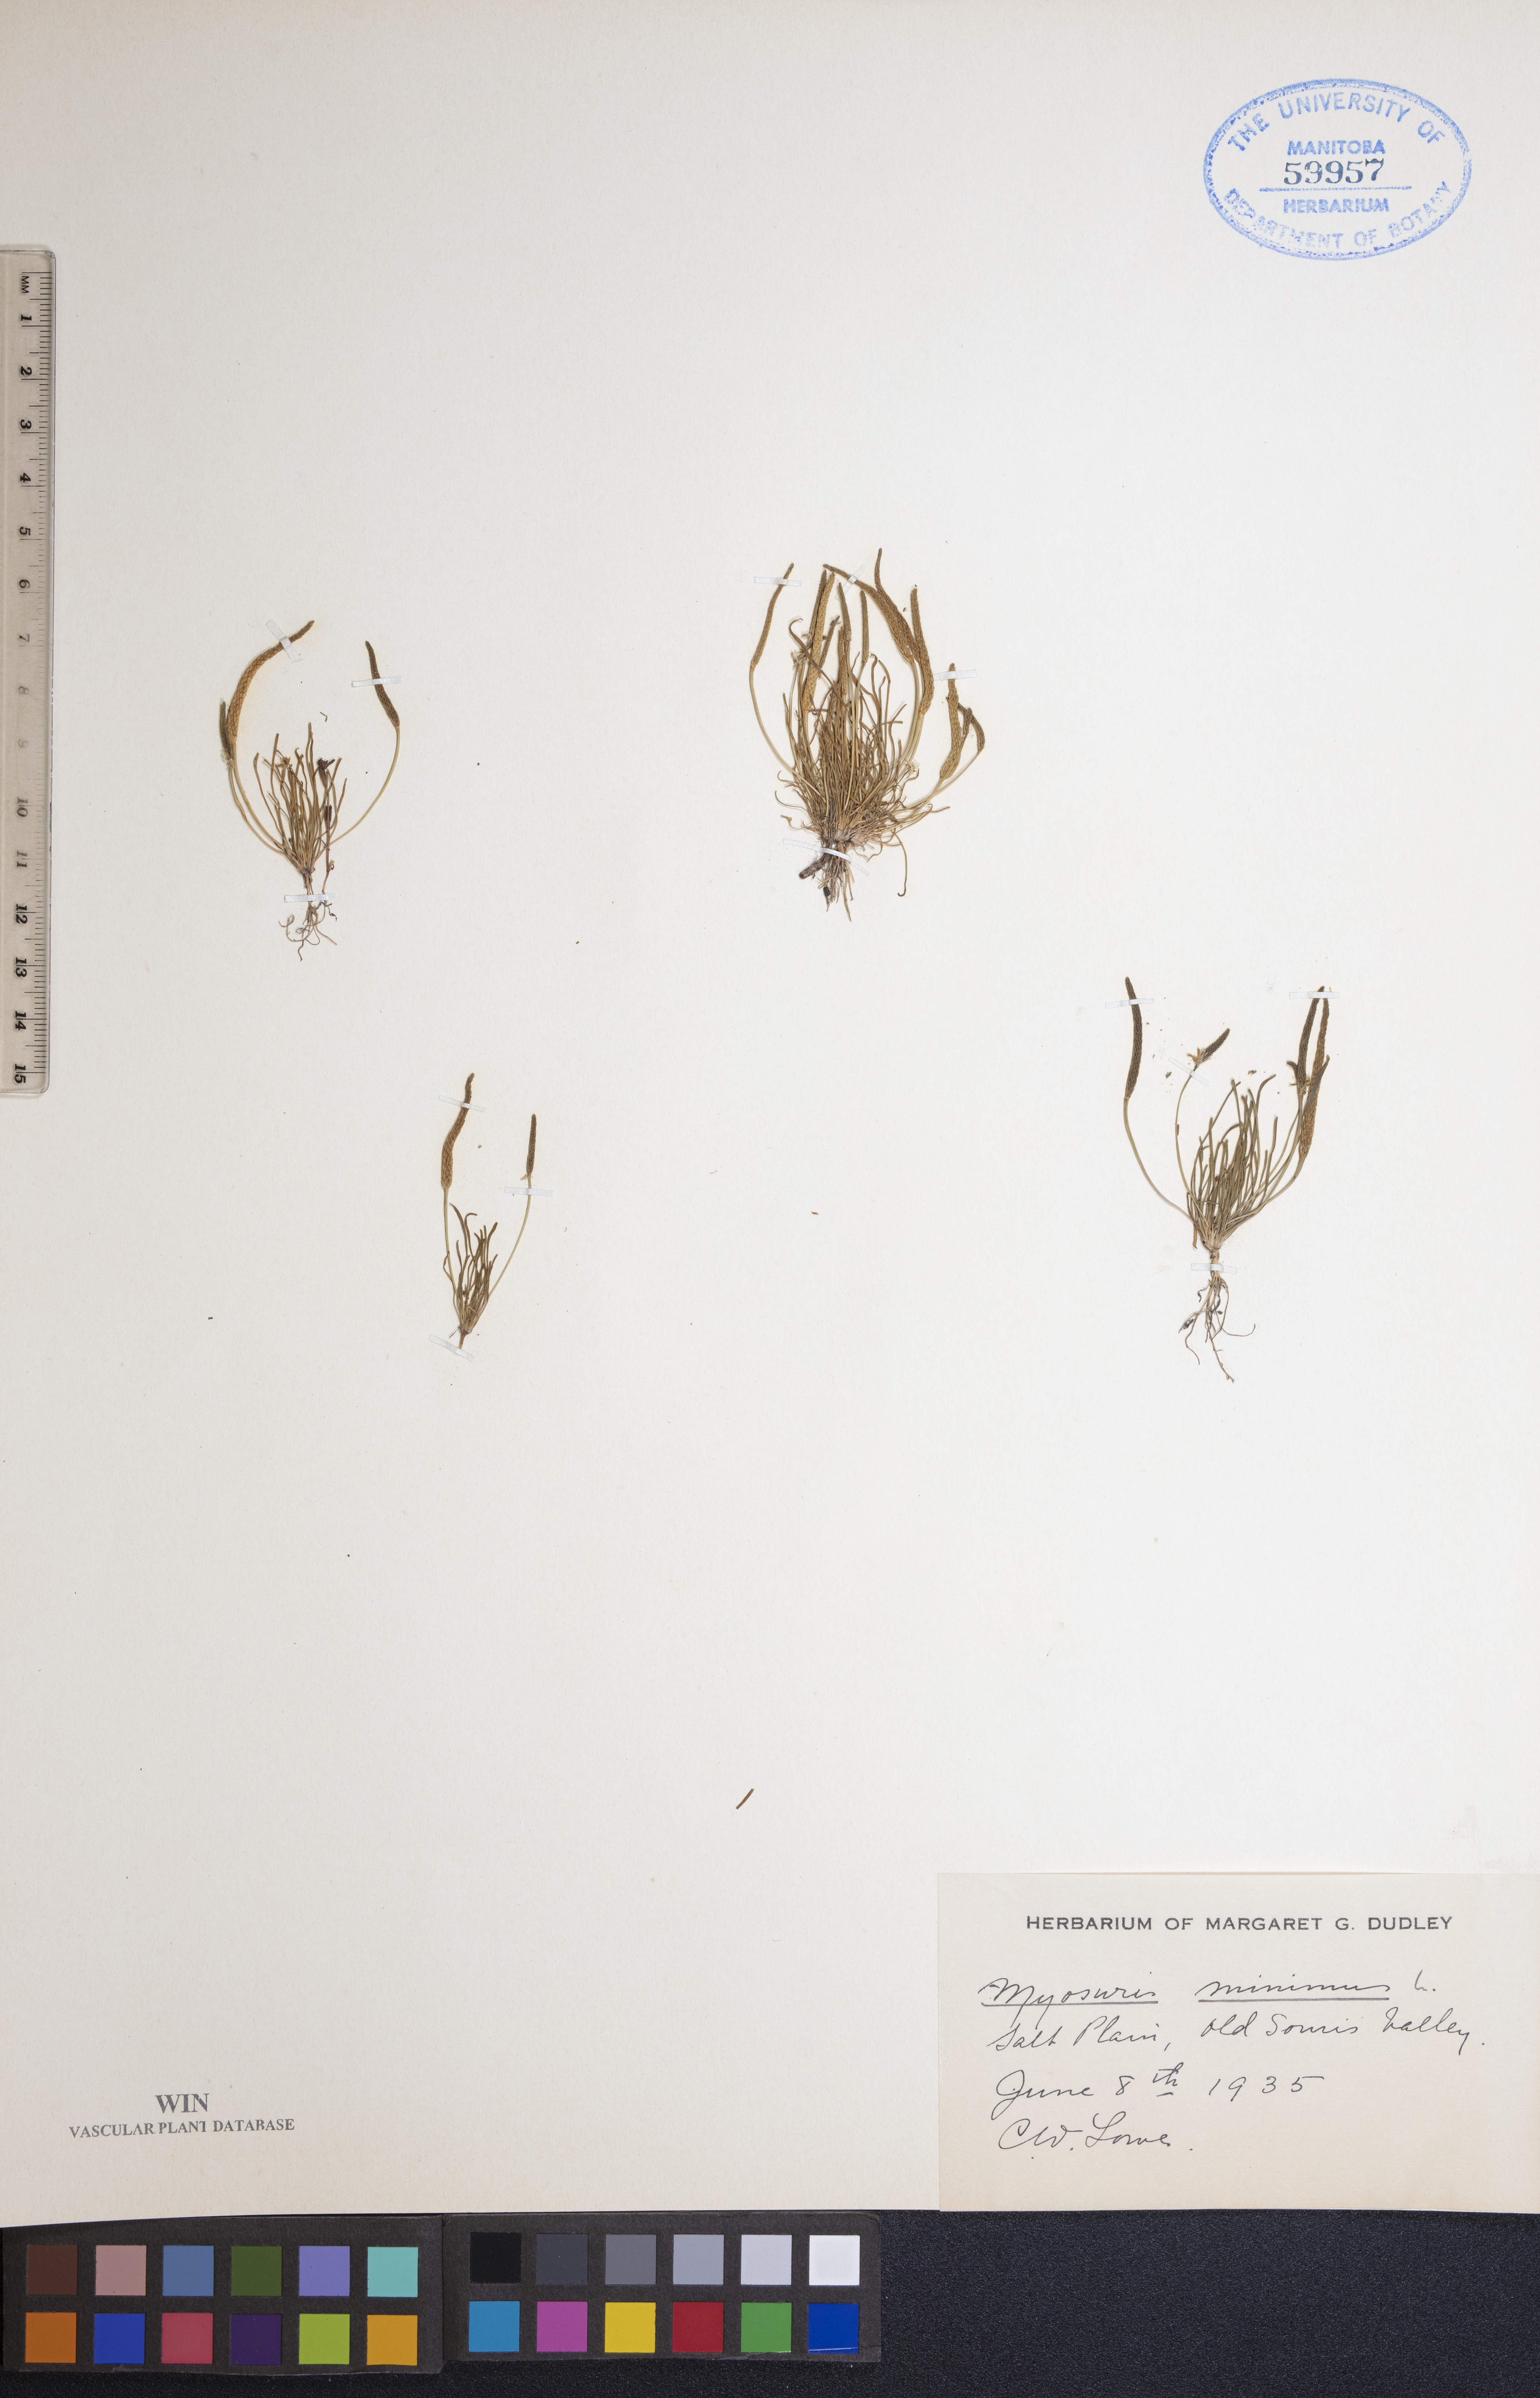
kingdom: Plantae
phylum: Tracheophyta
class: Magnoliopsida
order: Ranunculales
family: Ranunculaceae
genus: Myosurus
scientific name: Myosurus minimus
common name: Mousetail
